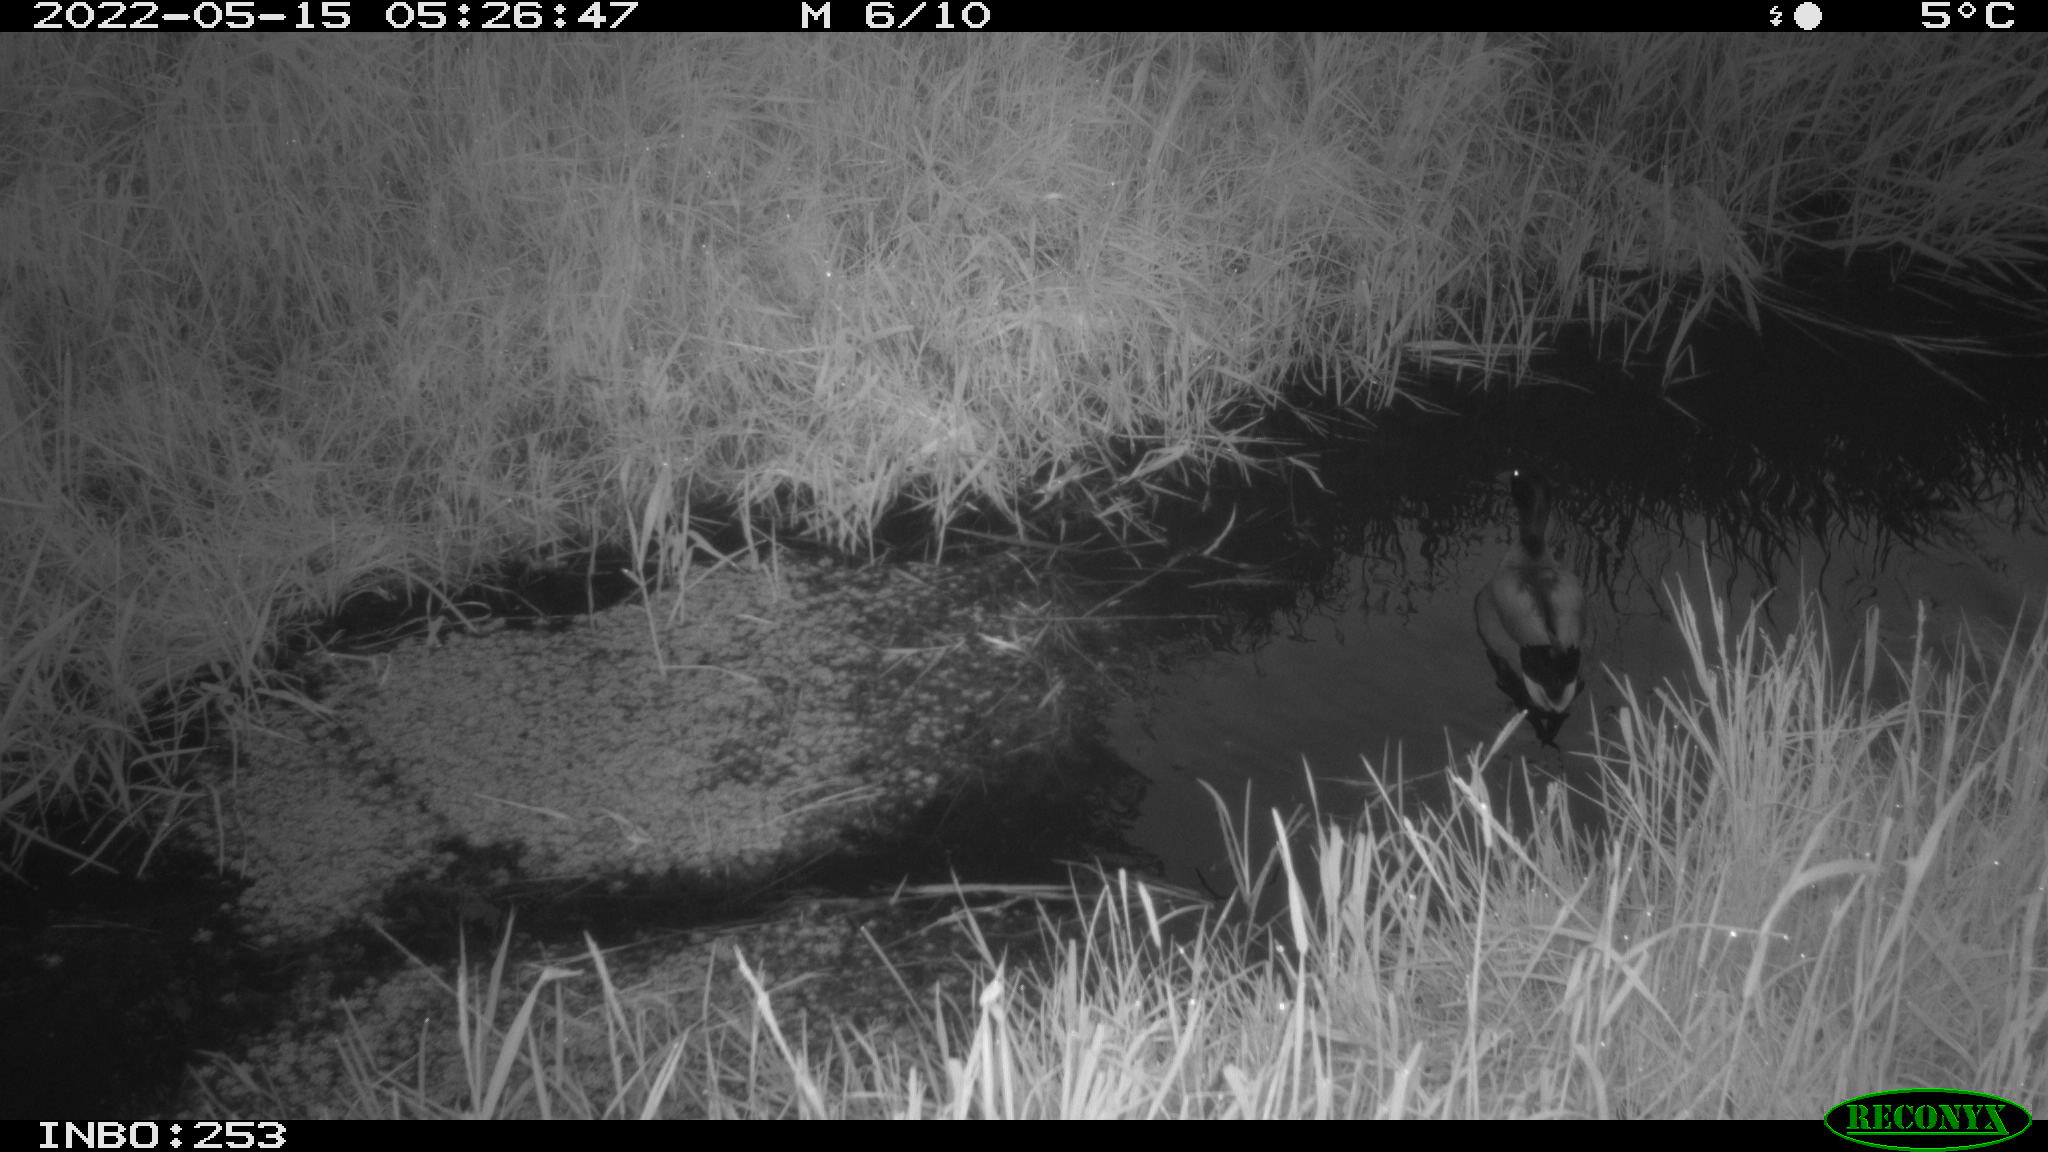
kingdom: Animalia
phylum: Chordata
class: Aves
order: Anseriformes
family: Anatidae
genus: Anas
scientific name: Anas platyrhynchos
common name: Mallard
